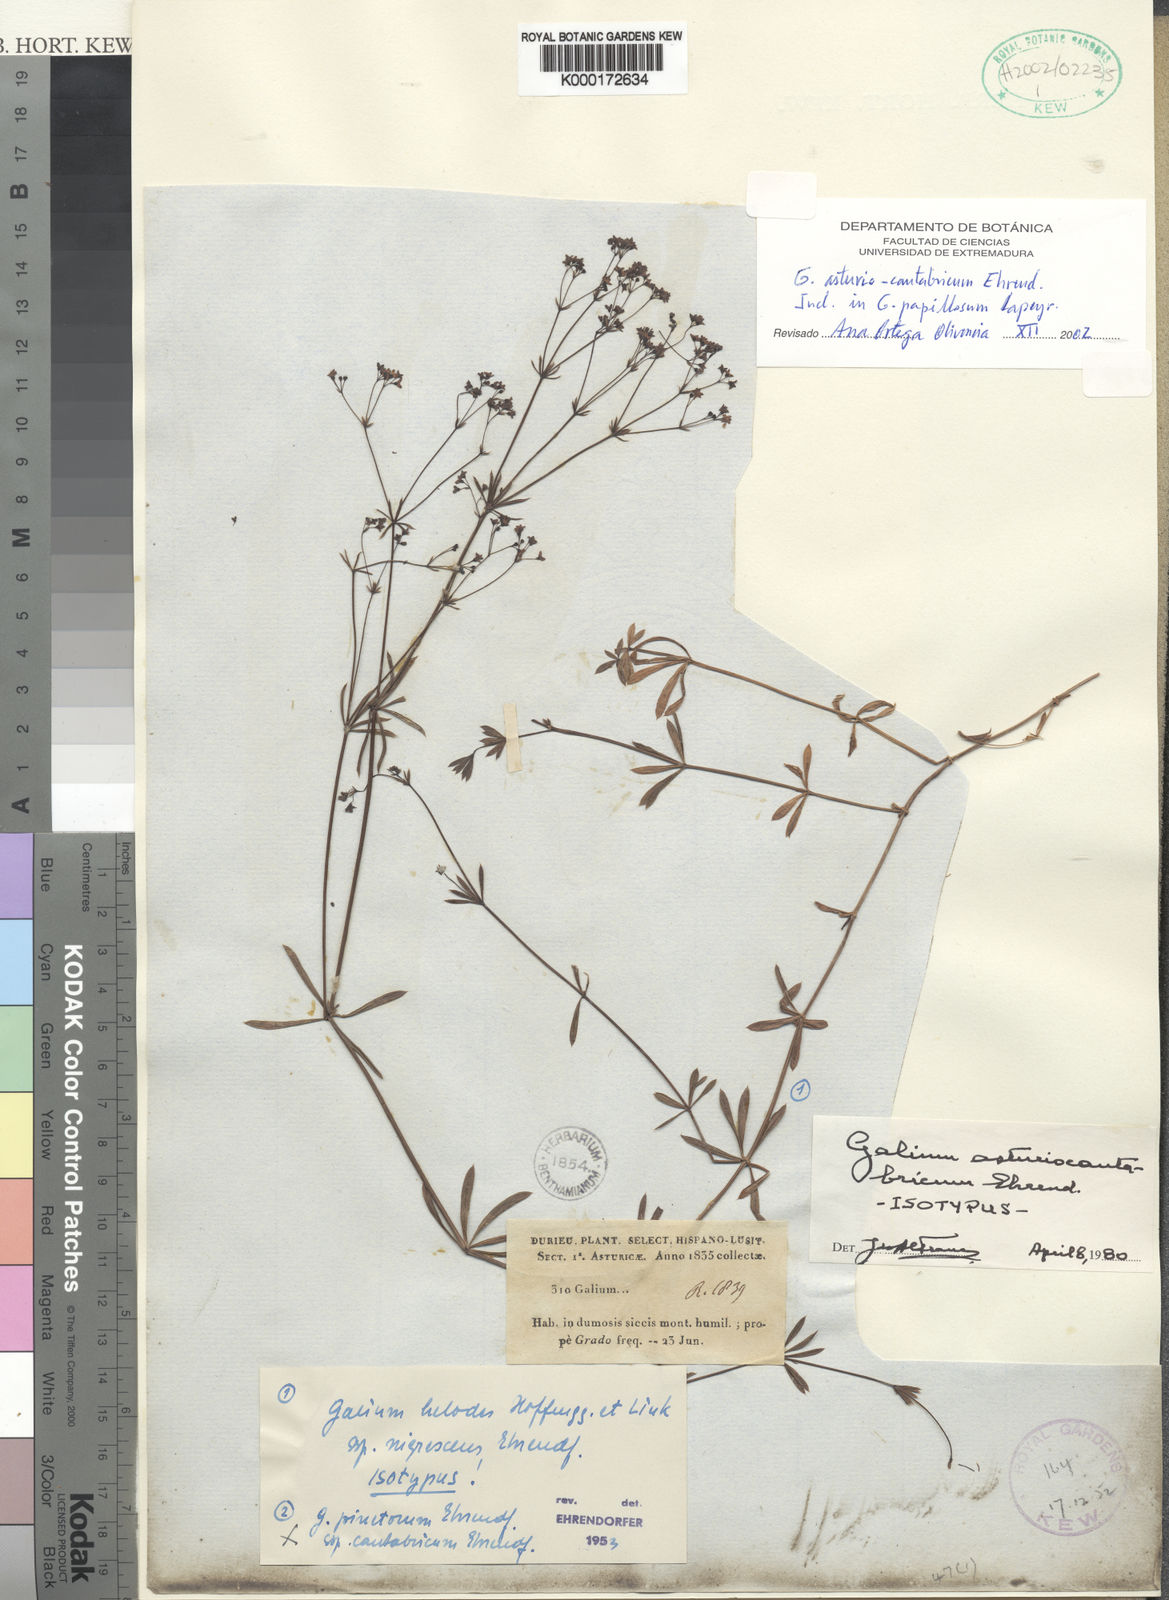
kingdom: Plantae
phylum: Tracheophyta
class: Magnoliopsida
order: Gentianales
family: Rubiaceae
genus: Galium
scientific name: Galium papillosum
